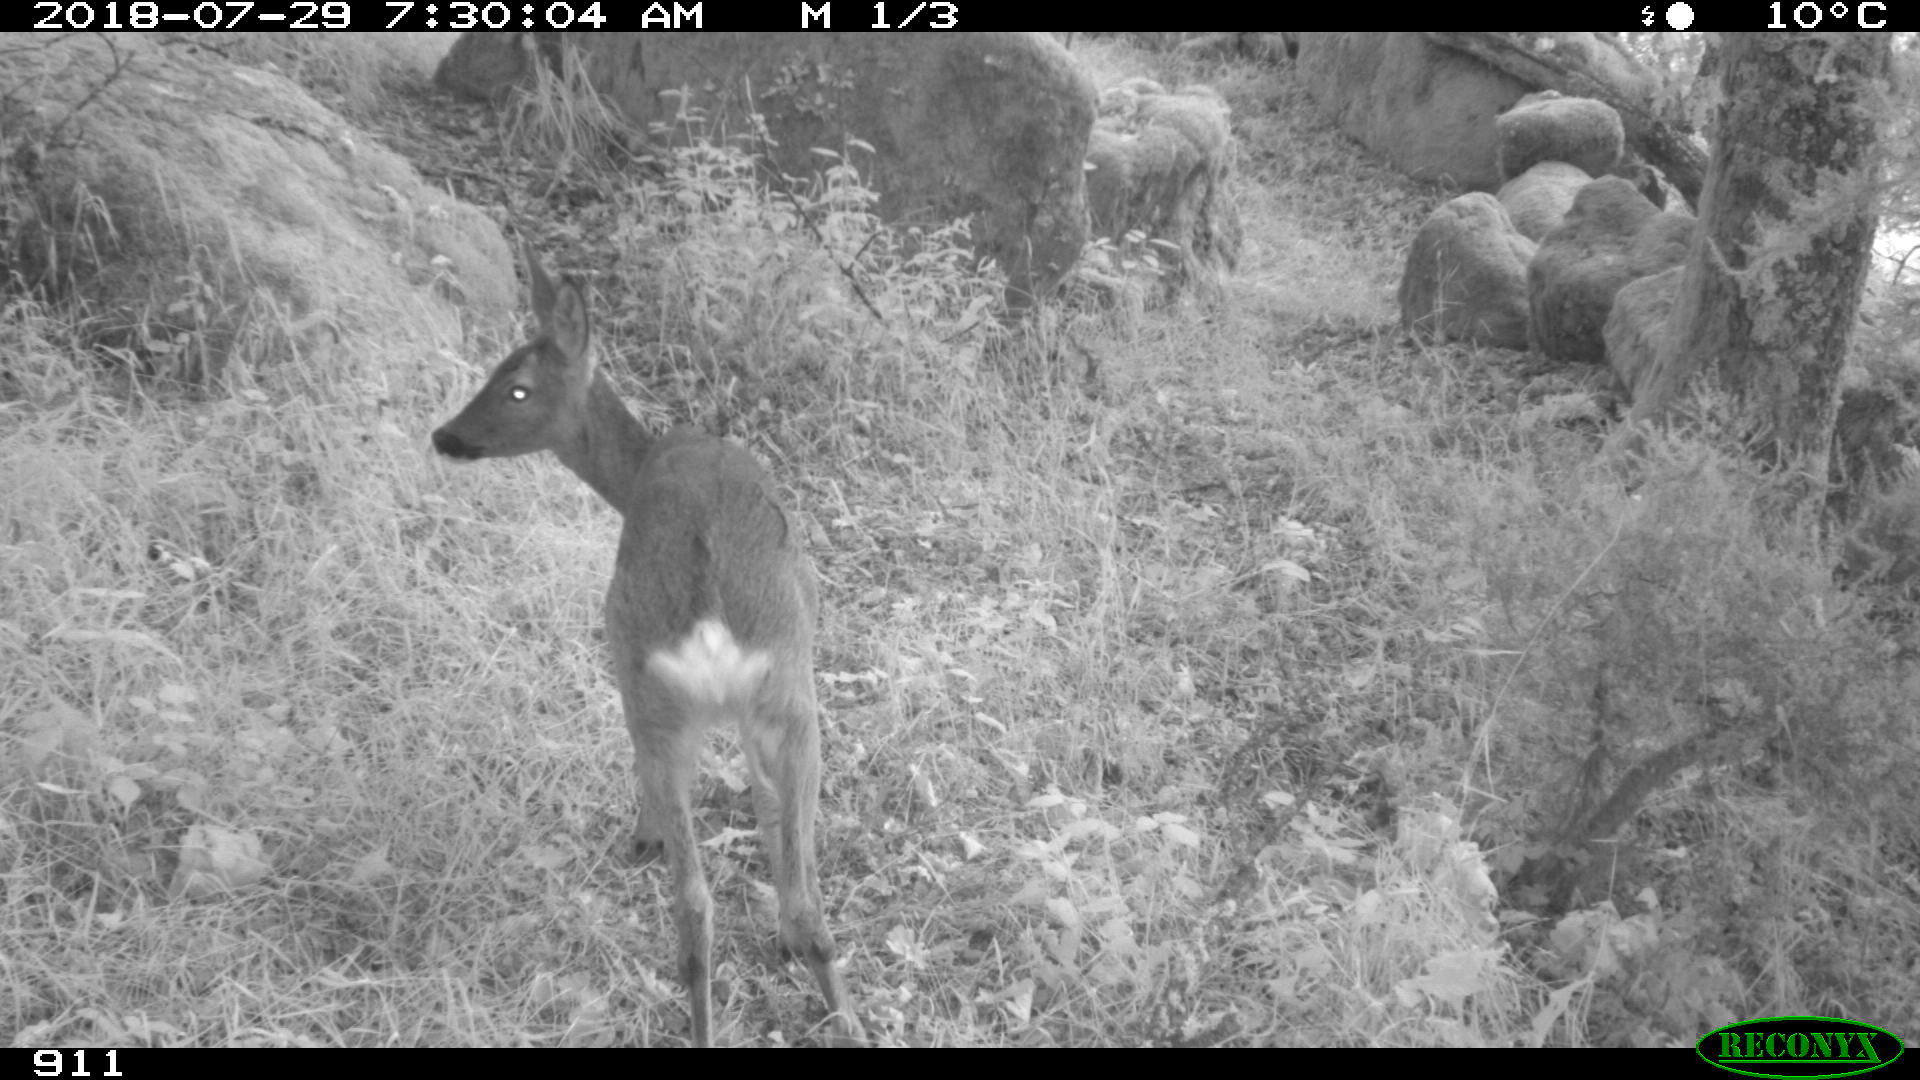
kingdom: Animalia
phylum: Chordata
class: Mammalia
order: Artiodactyla
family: Cervidae
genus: Capreolus
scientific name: Capreolus capreolus
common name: Western roe deer
